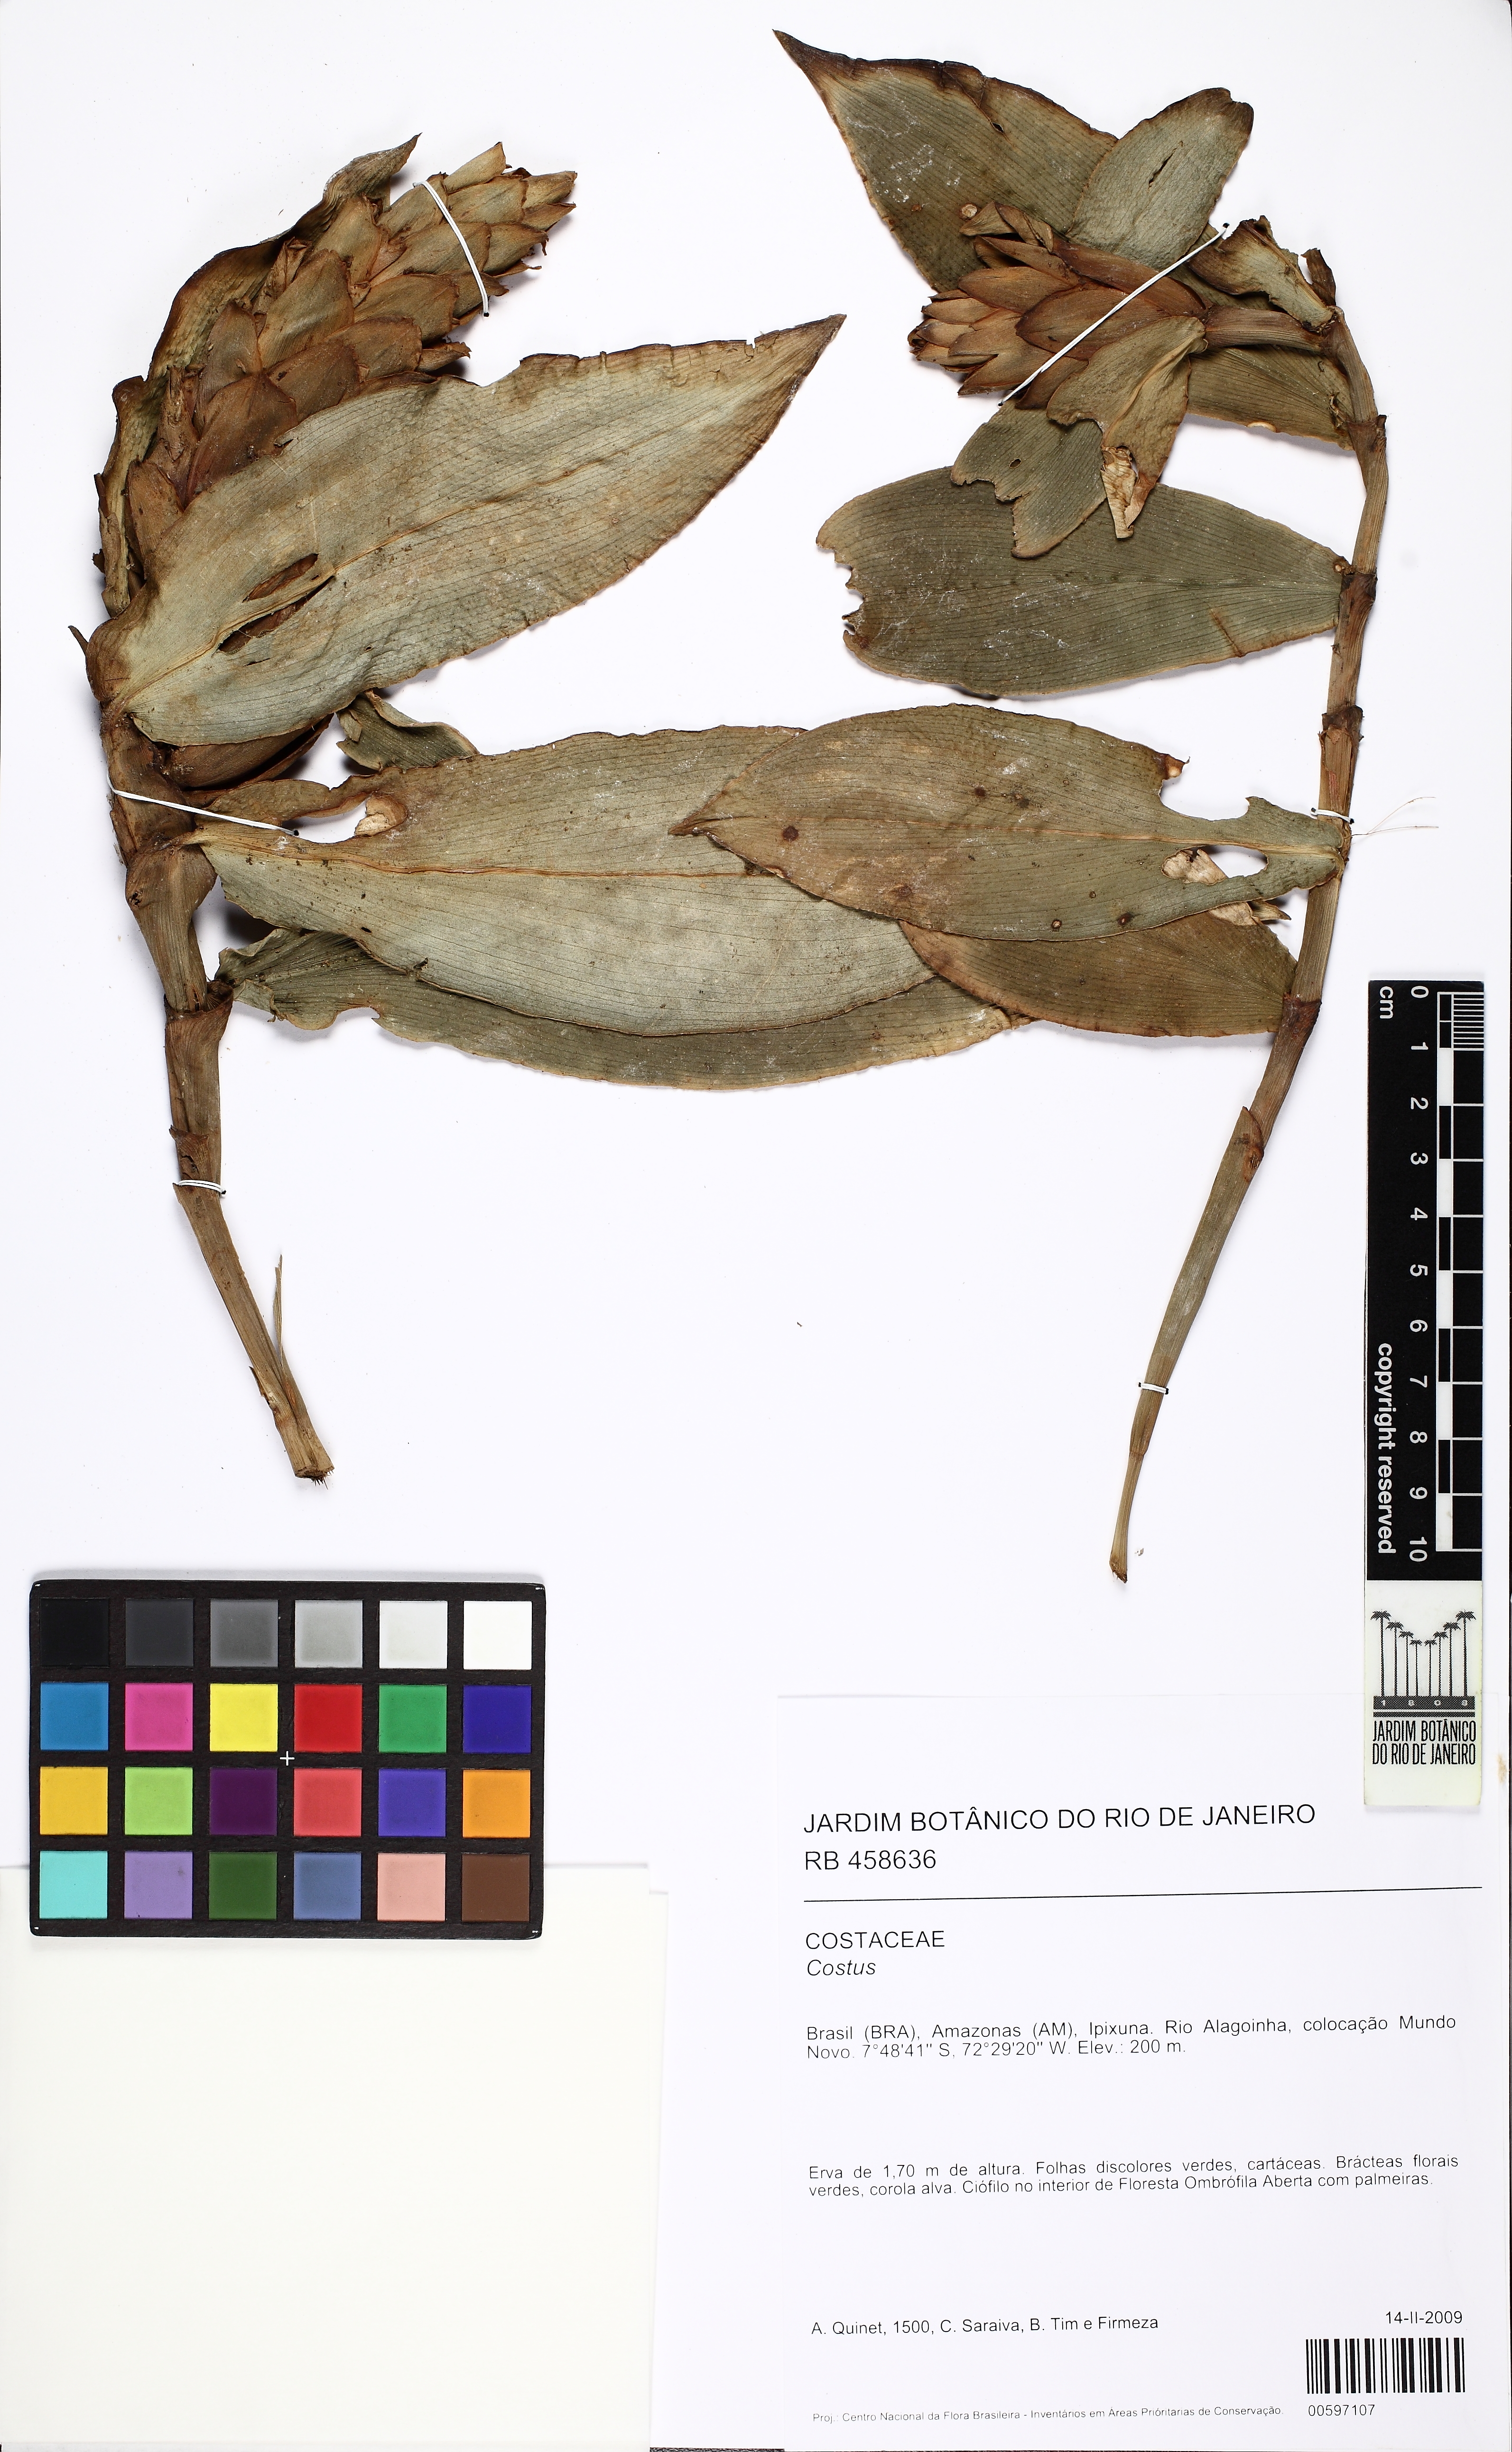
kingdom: Plantae
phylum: Tracheophyta
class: Liliopsida
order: Zingiberales
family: Costaceae
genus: Costus
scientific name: Costus
